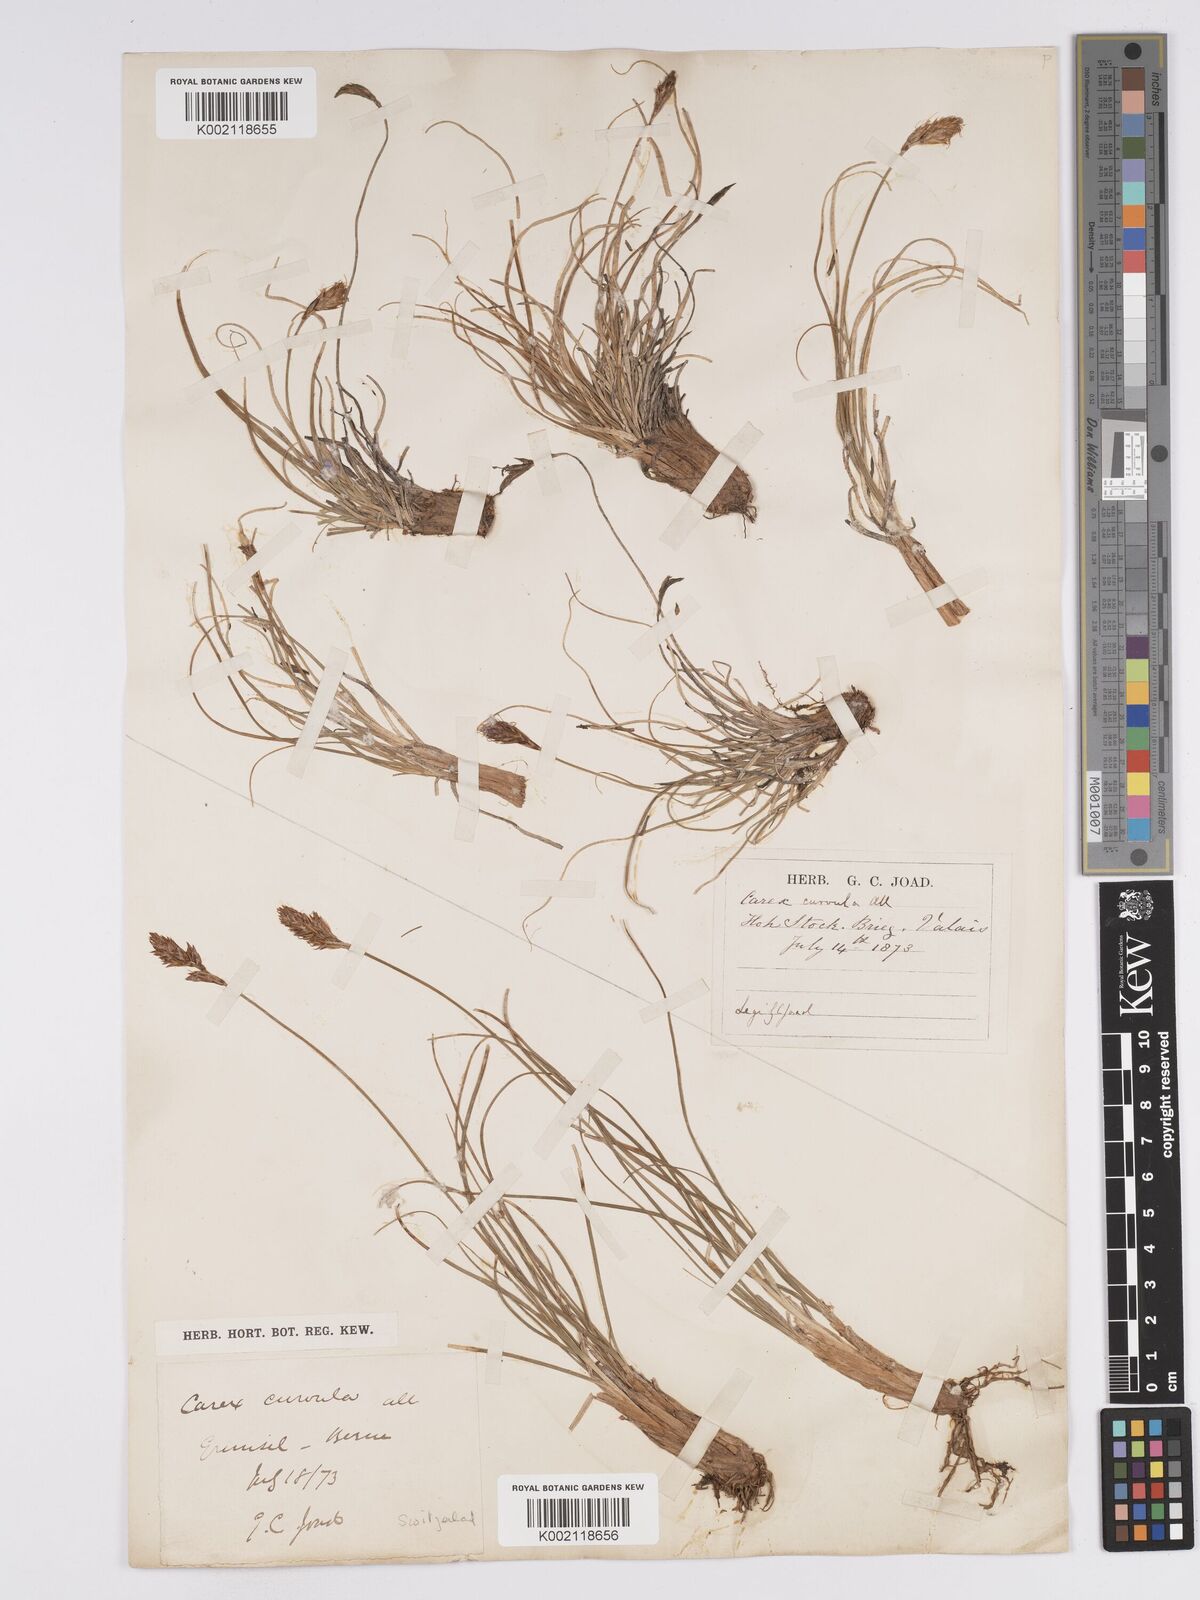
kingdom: Plantae
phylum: Tracheophyta
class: Liliopsida
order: Poales
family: Cyperaceae
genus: Carex
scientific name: Carex curvula
